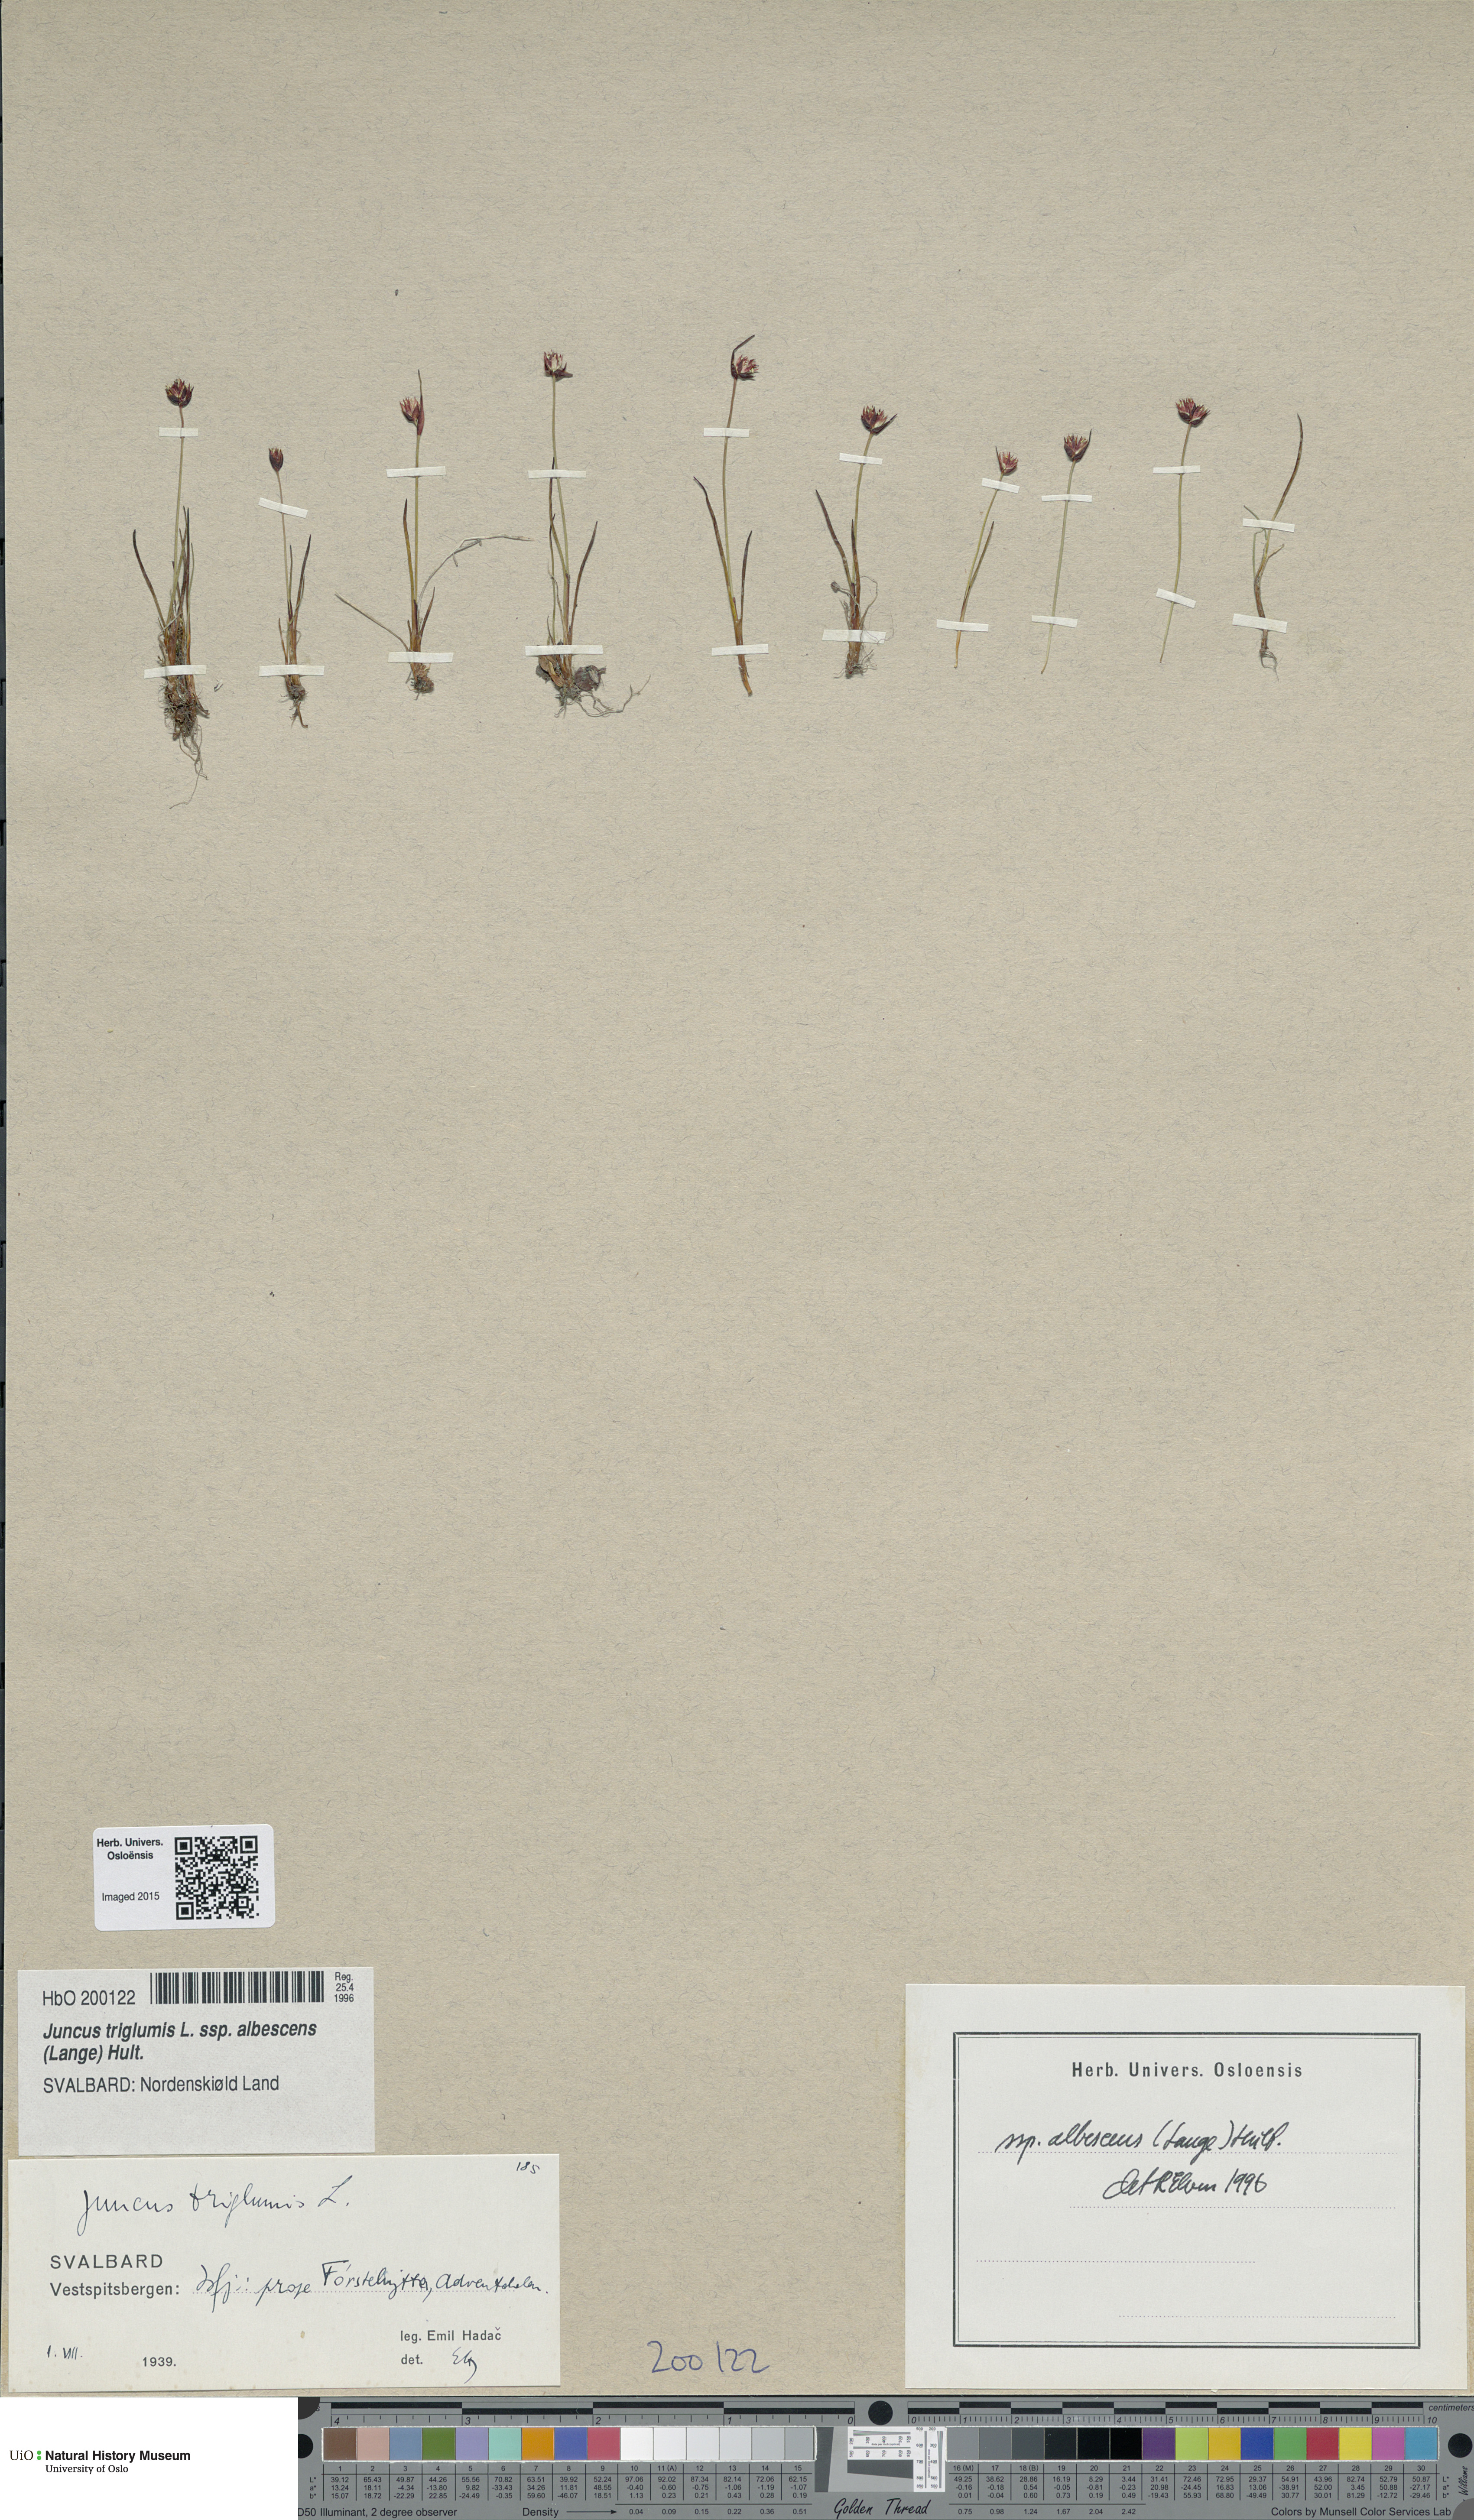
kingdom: Plantae
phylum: Tracheophyta
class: Liliopsida
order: Poales
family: Juncaceae
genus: Juncus
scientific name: Juncus albescens
